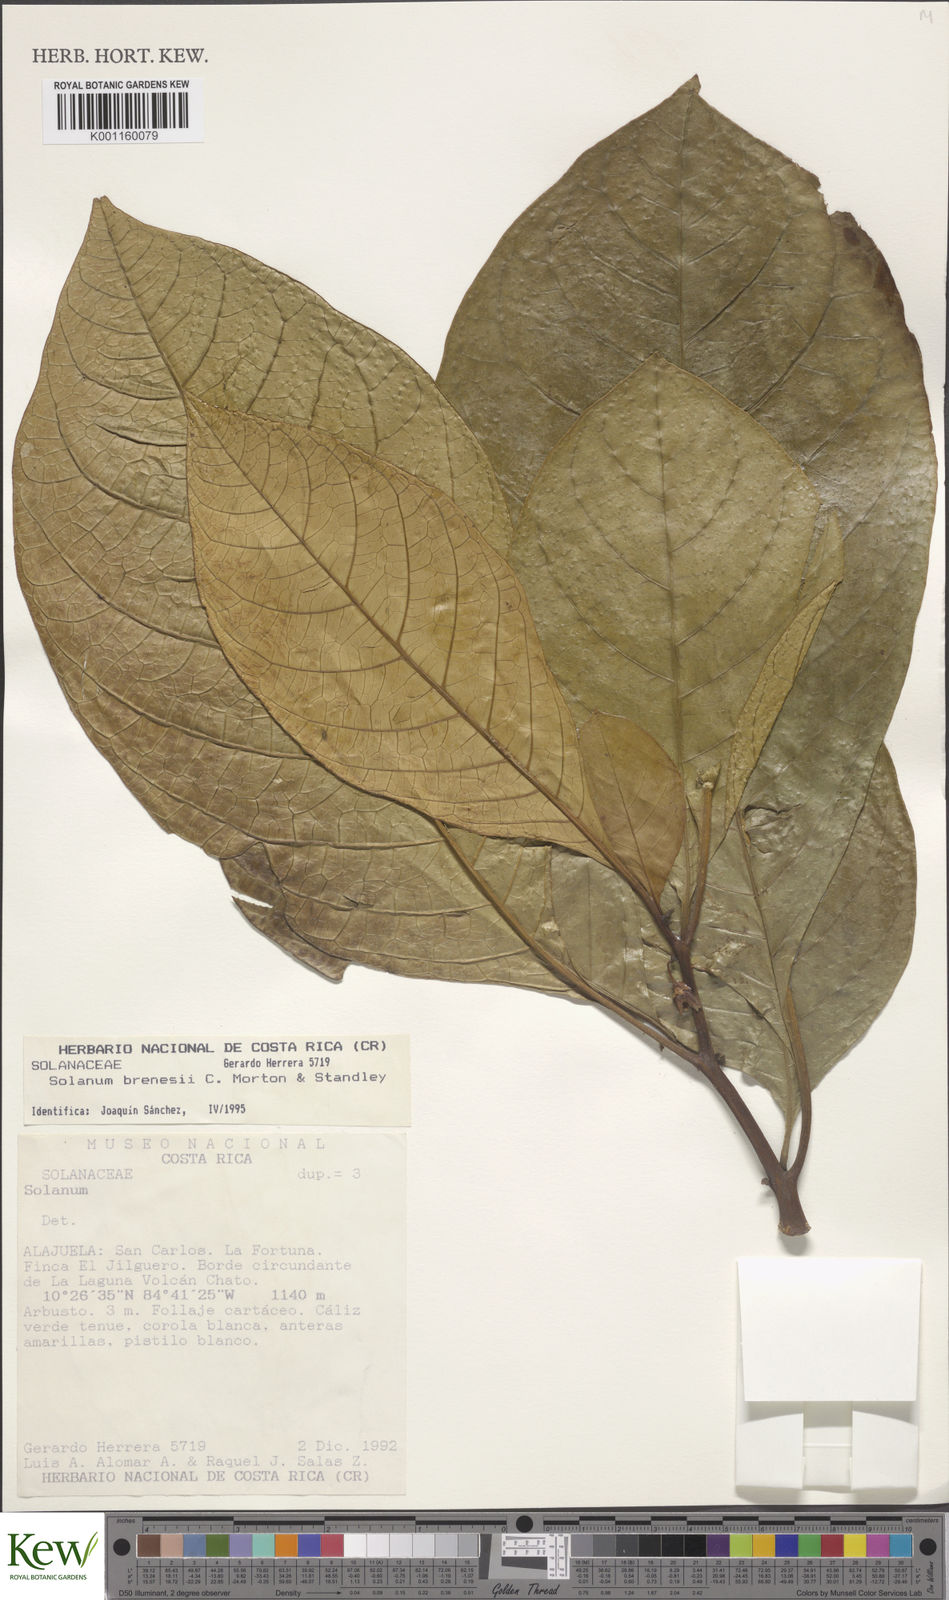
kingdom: Plantae
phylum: Tracheophyta
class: Magnoliopsida
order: Solanales
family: Solanaceae
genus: Solanum
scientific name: Solanum rovirosanum
